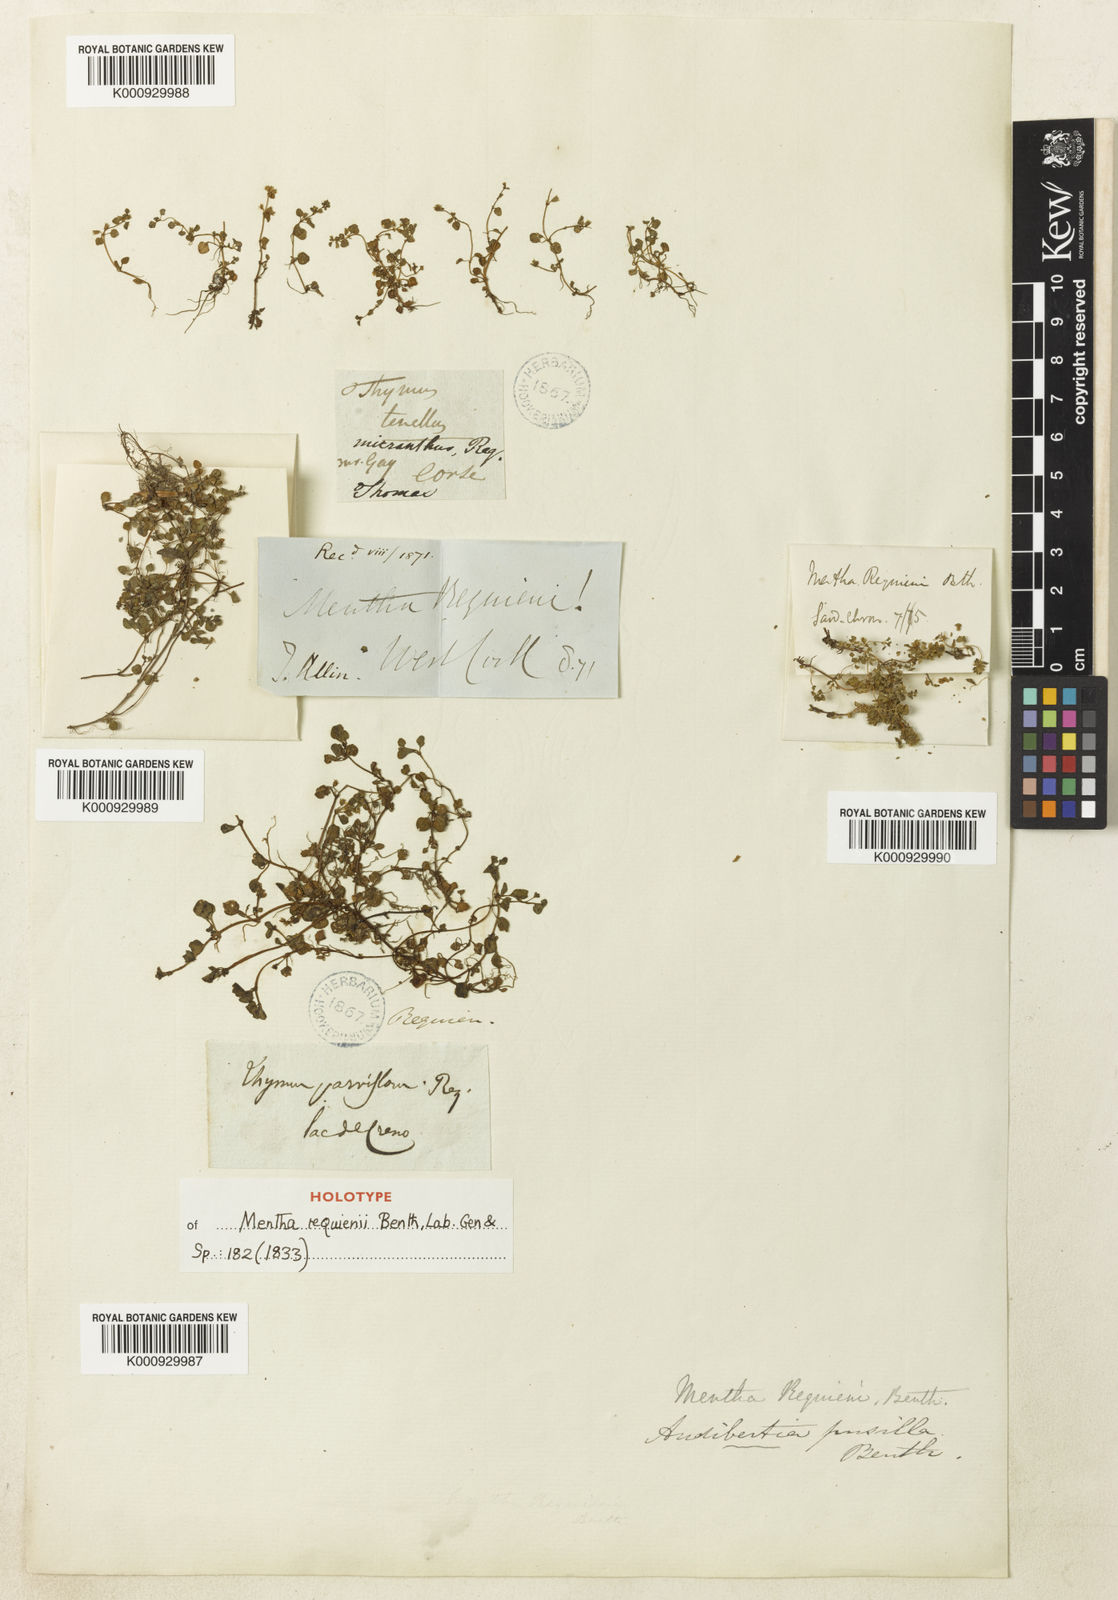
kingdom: Plantae
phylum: Tracheophyta
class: Magnoliopsida
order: Lamiales
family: Lamiaceae
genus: Mentha
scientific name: Mentha requienii
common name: Corsican mint
